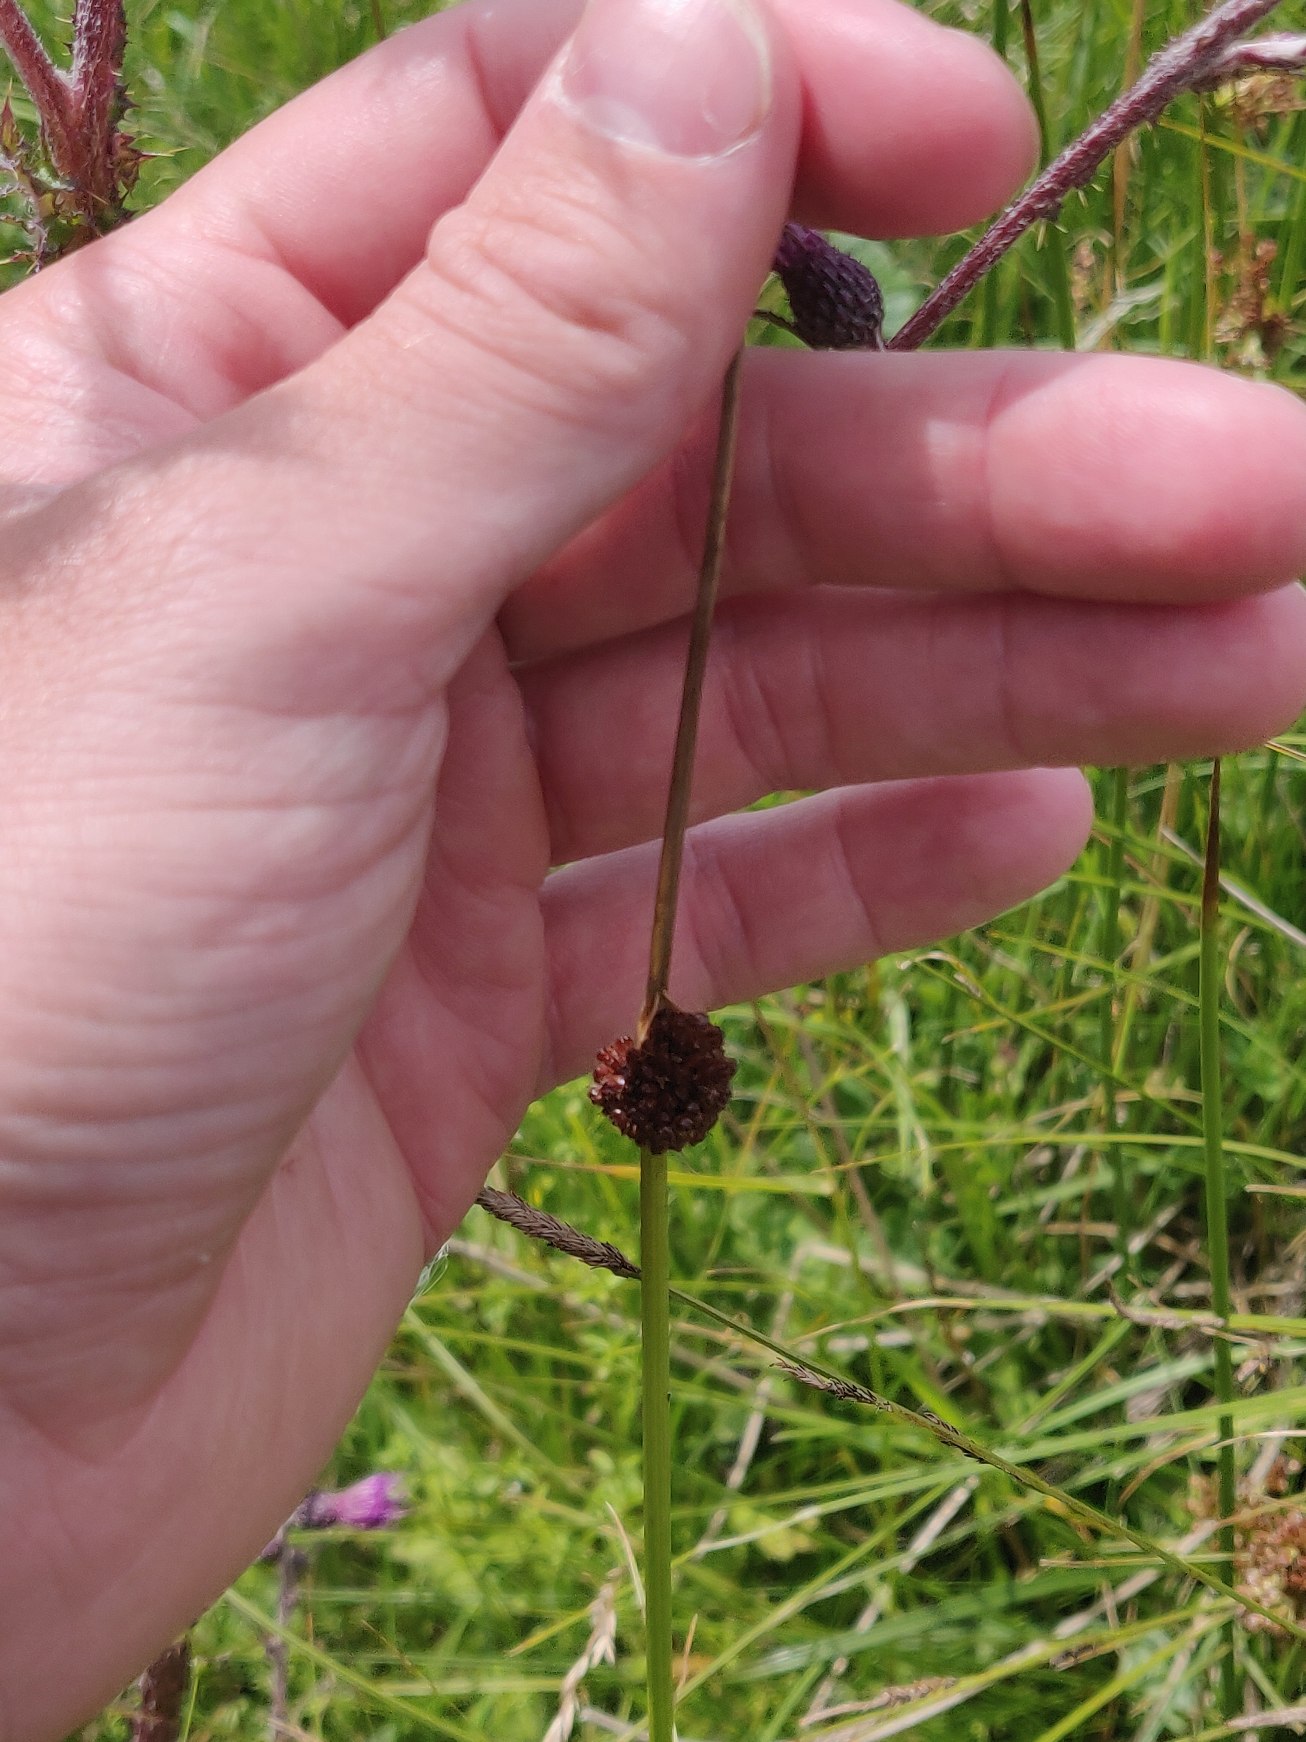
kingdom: Plantae
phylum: Tracheophyta
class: Liliopsida
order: Poales
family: Juncaceae
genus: Juncus
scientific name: Juncus conglomeratus
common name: Knop-siv
